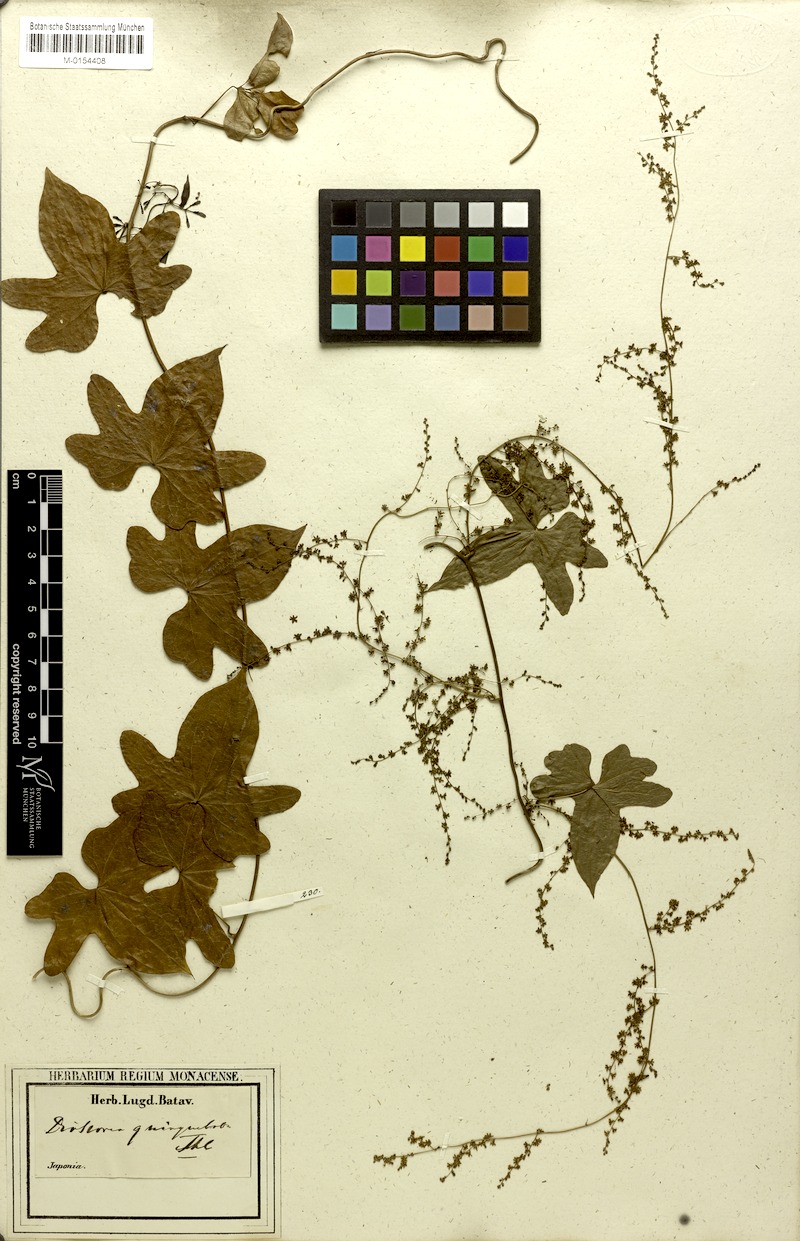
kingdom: Plantae
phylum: Tracheophyta
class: Liliopsida
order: Dioscoreales
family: Dioscoreaceae
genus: Dioscorea
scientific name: Dioscorea quinquelobata
